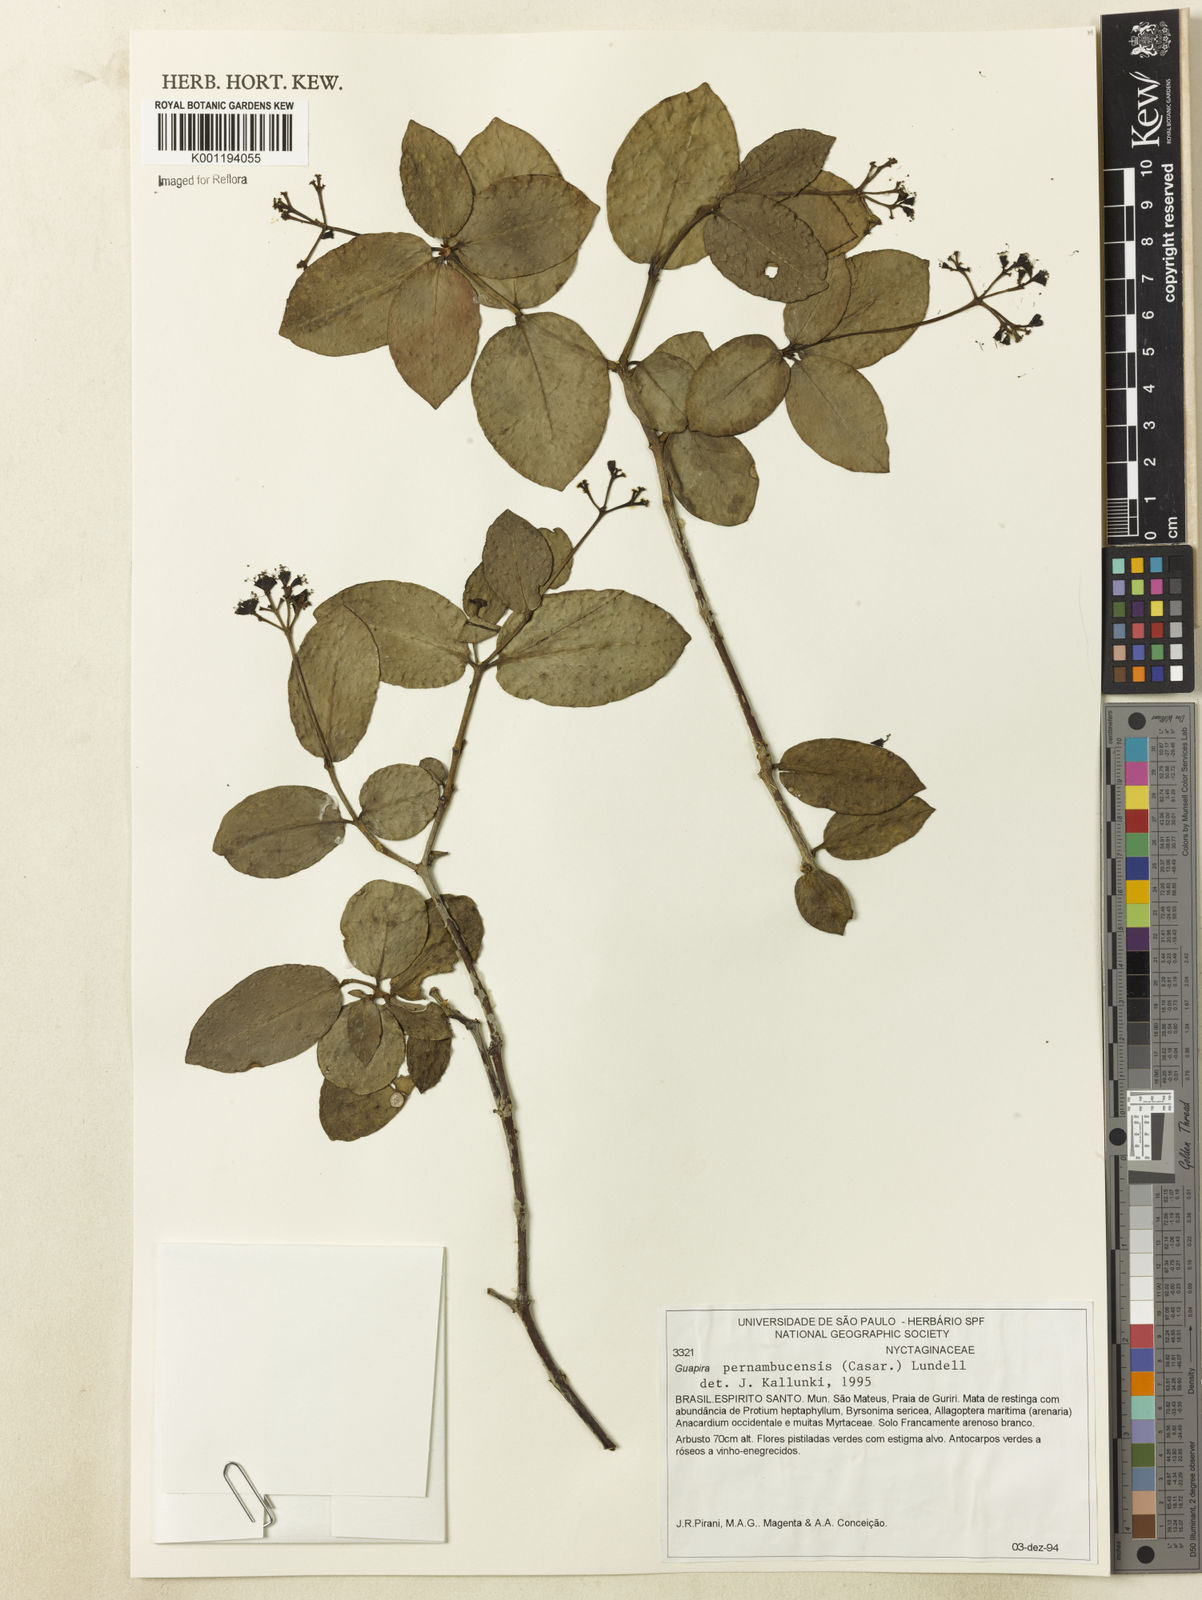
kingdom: Plantae
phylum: Tracheophyta
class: Magnoliopsida
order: Caryophyllales
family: Nyctaginaceae
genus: Guapira
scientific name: Guapira pernambucensis
